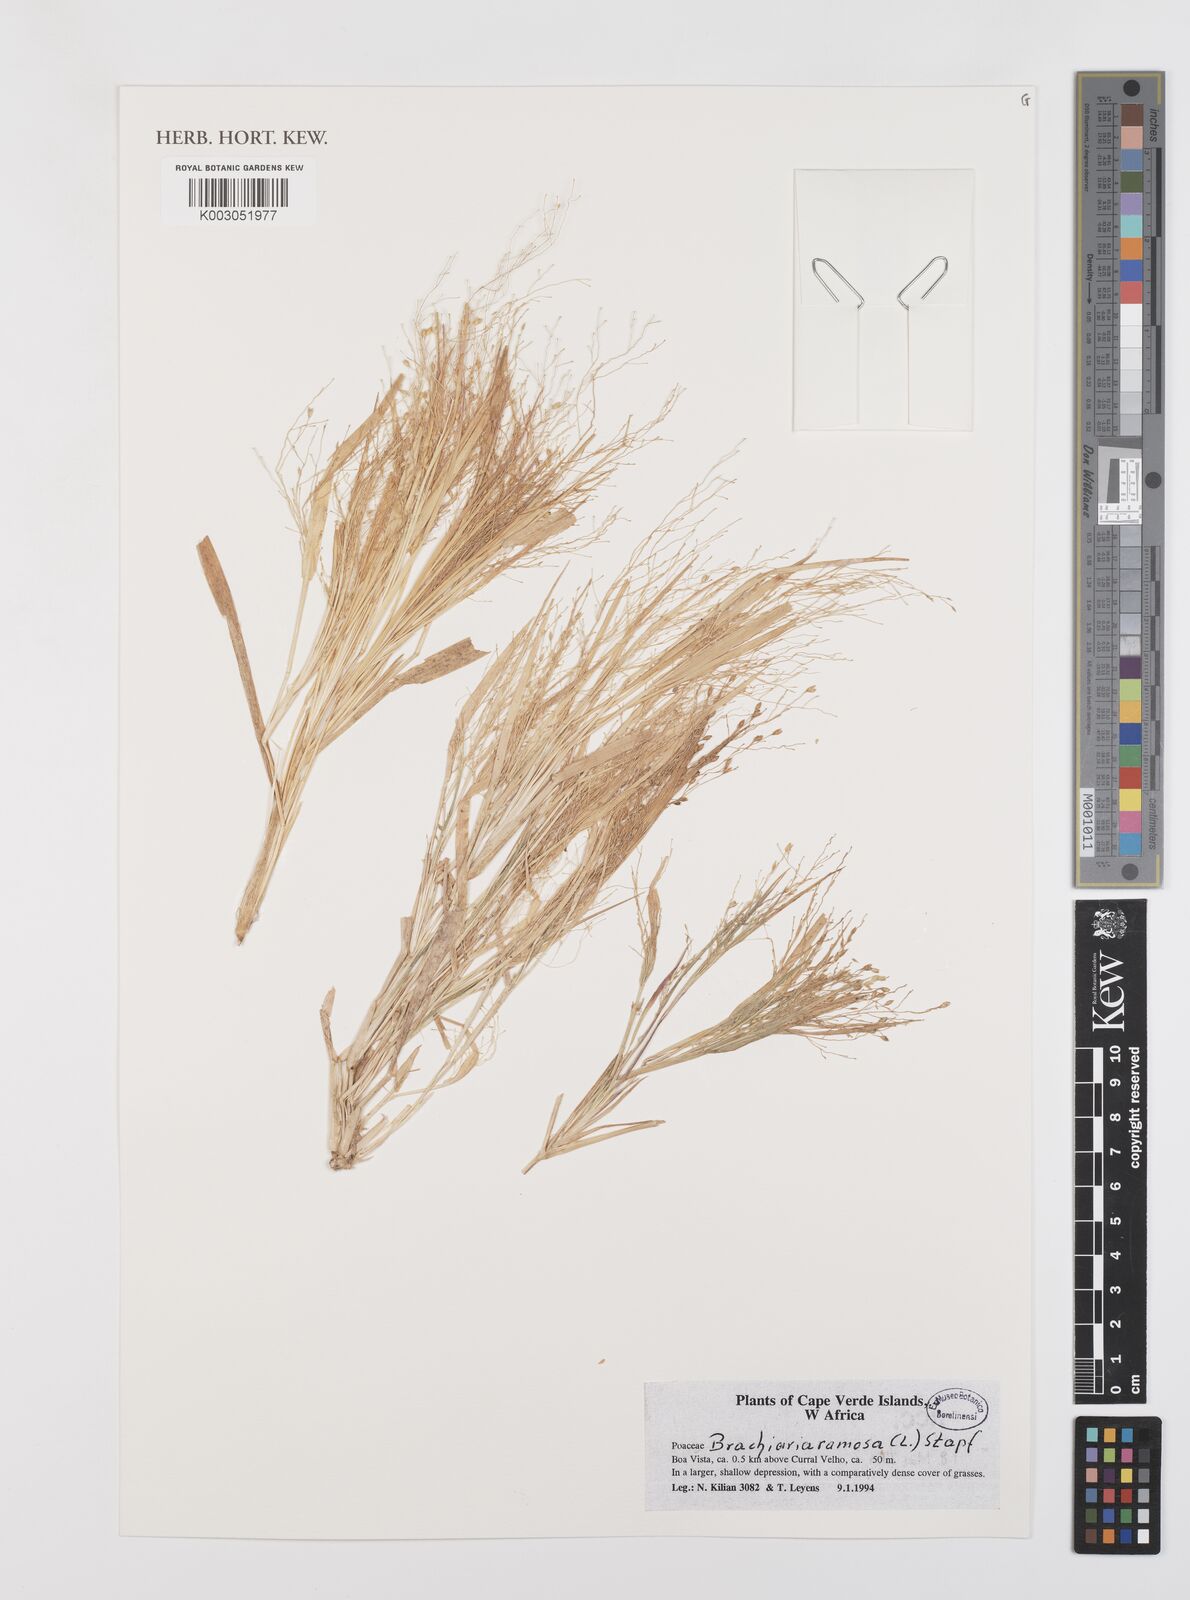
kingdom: Plantae
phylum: Tracheophyta
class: Liliopsida
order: Poales
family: Poaceae
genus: Urochloa
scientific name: Urochloa ramosa
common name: Browntop millet
